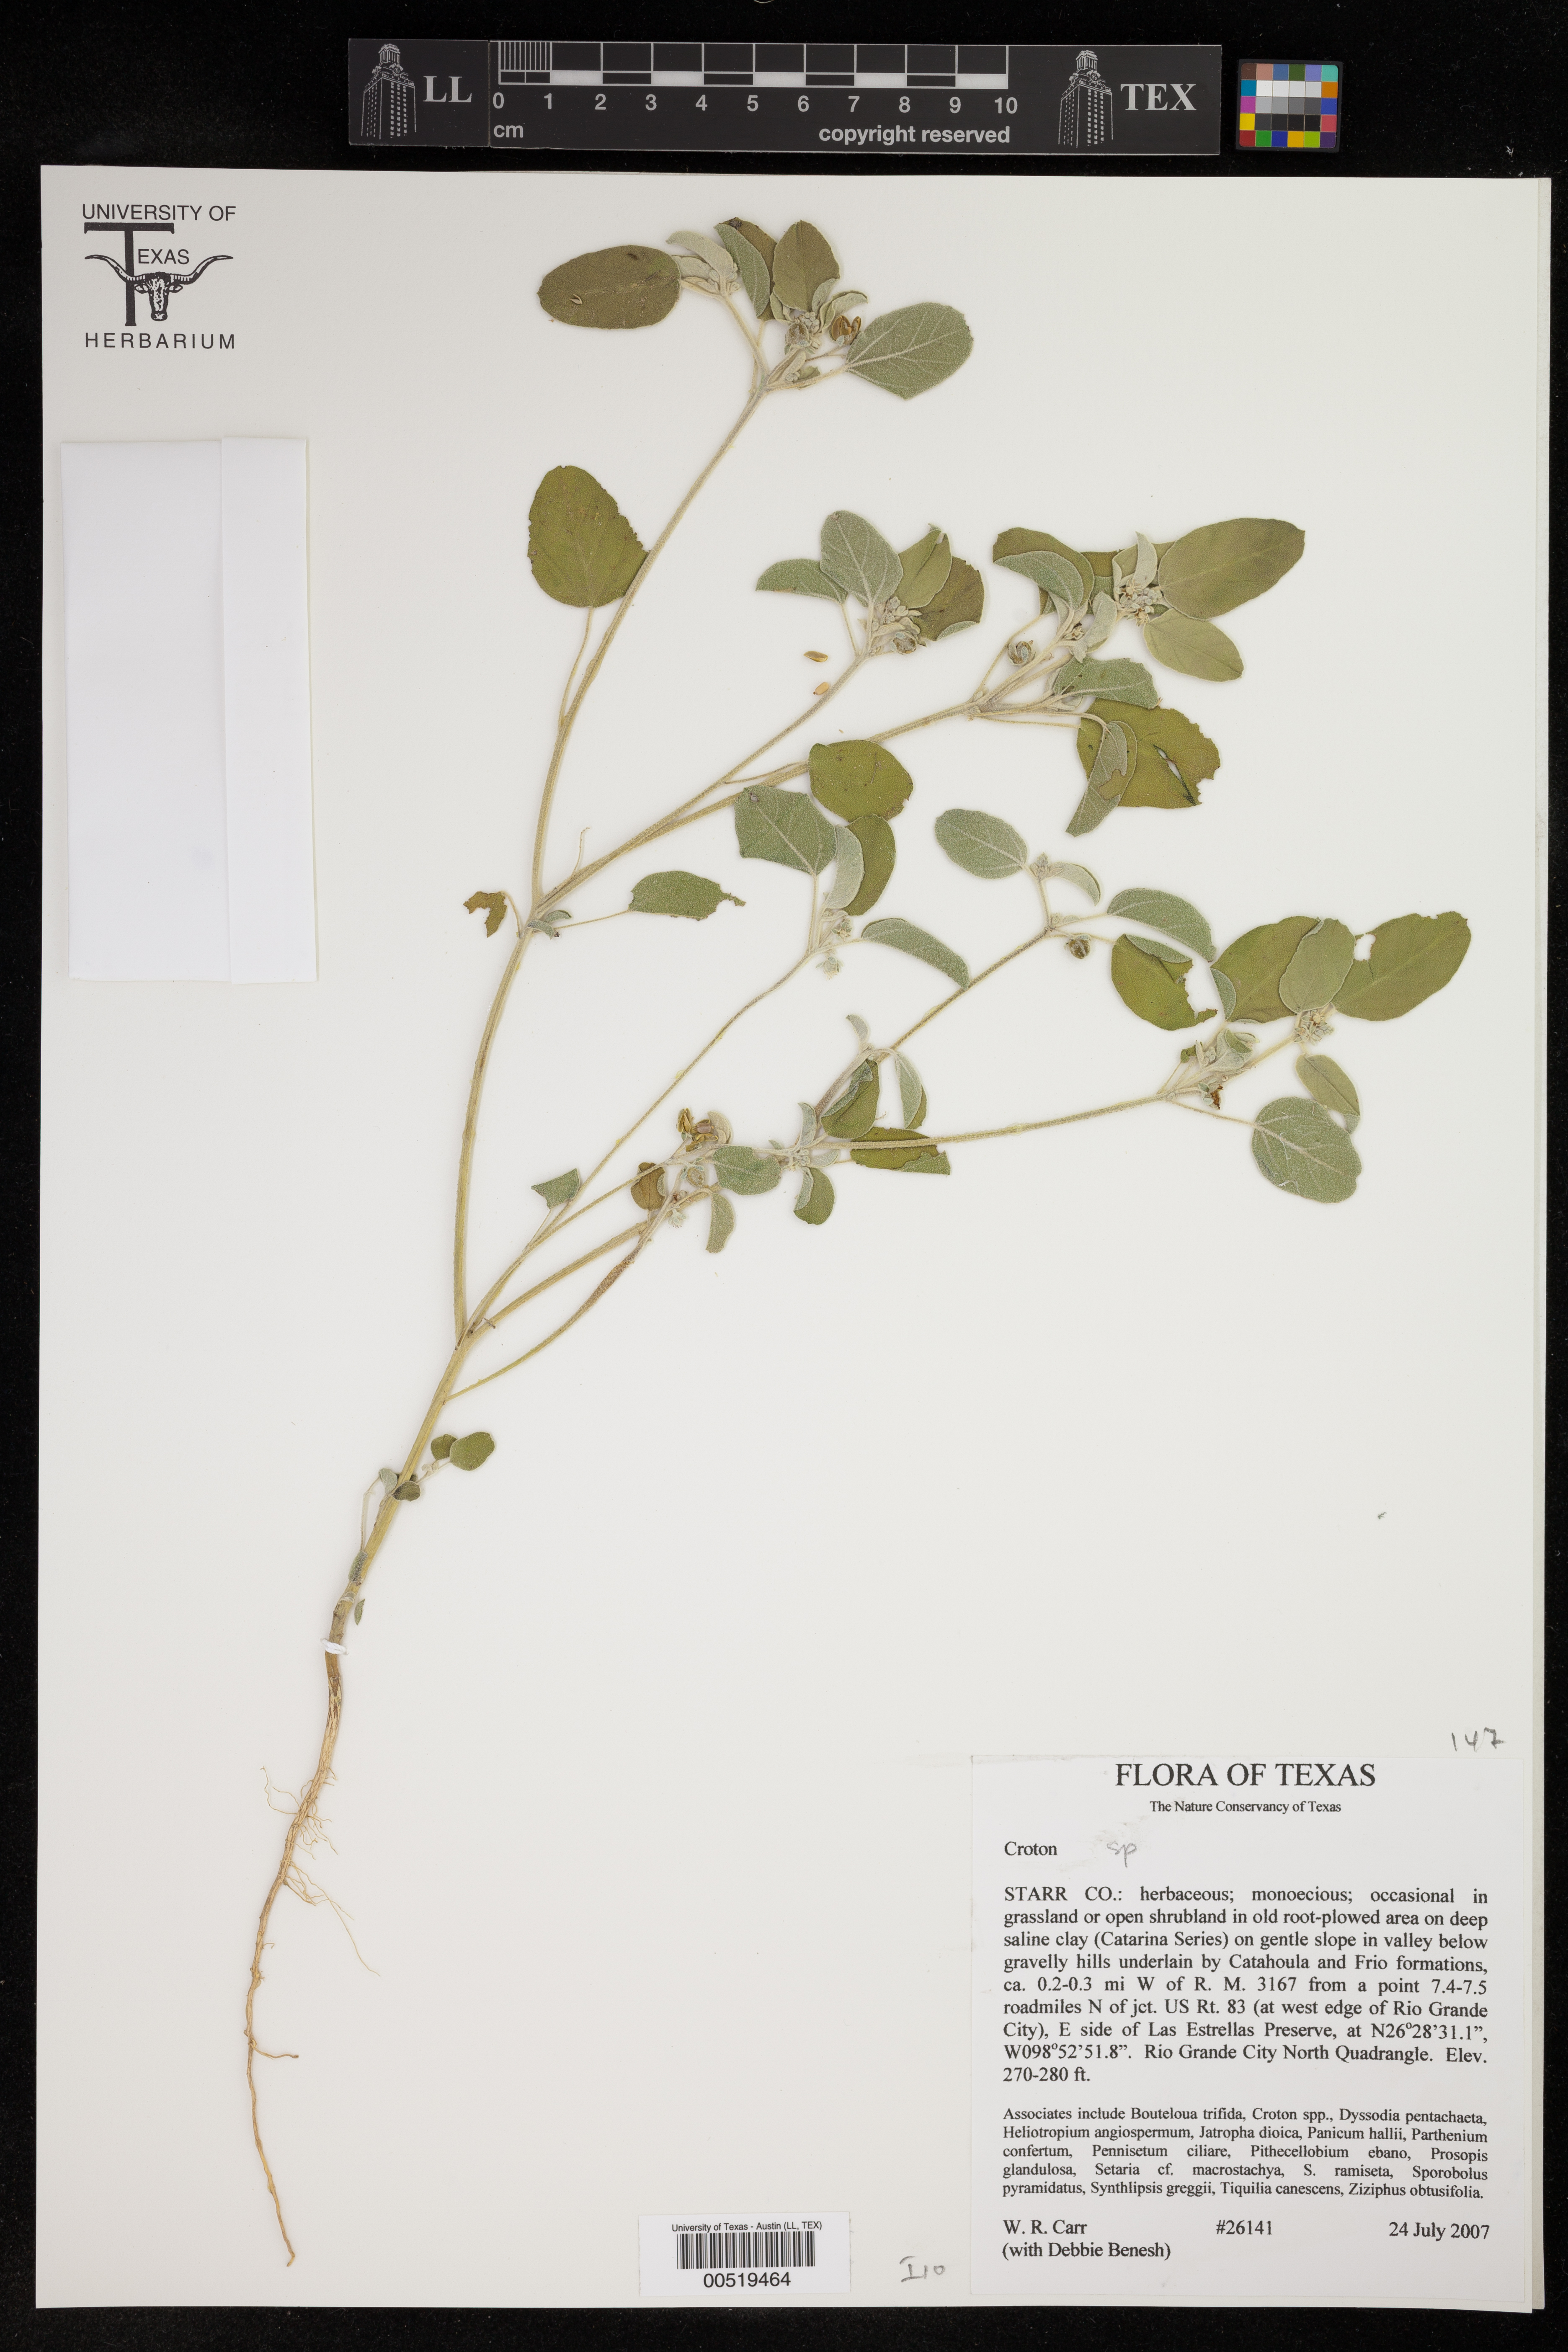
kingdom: Plantae
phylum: Tracheophyta
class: Magnoliopsida
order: Malpighiales
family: Euphorbiaceae
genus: Croton
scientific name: Croton
